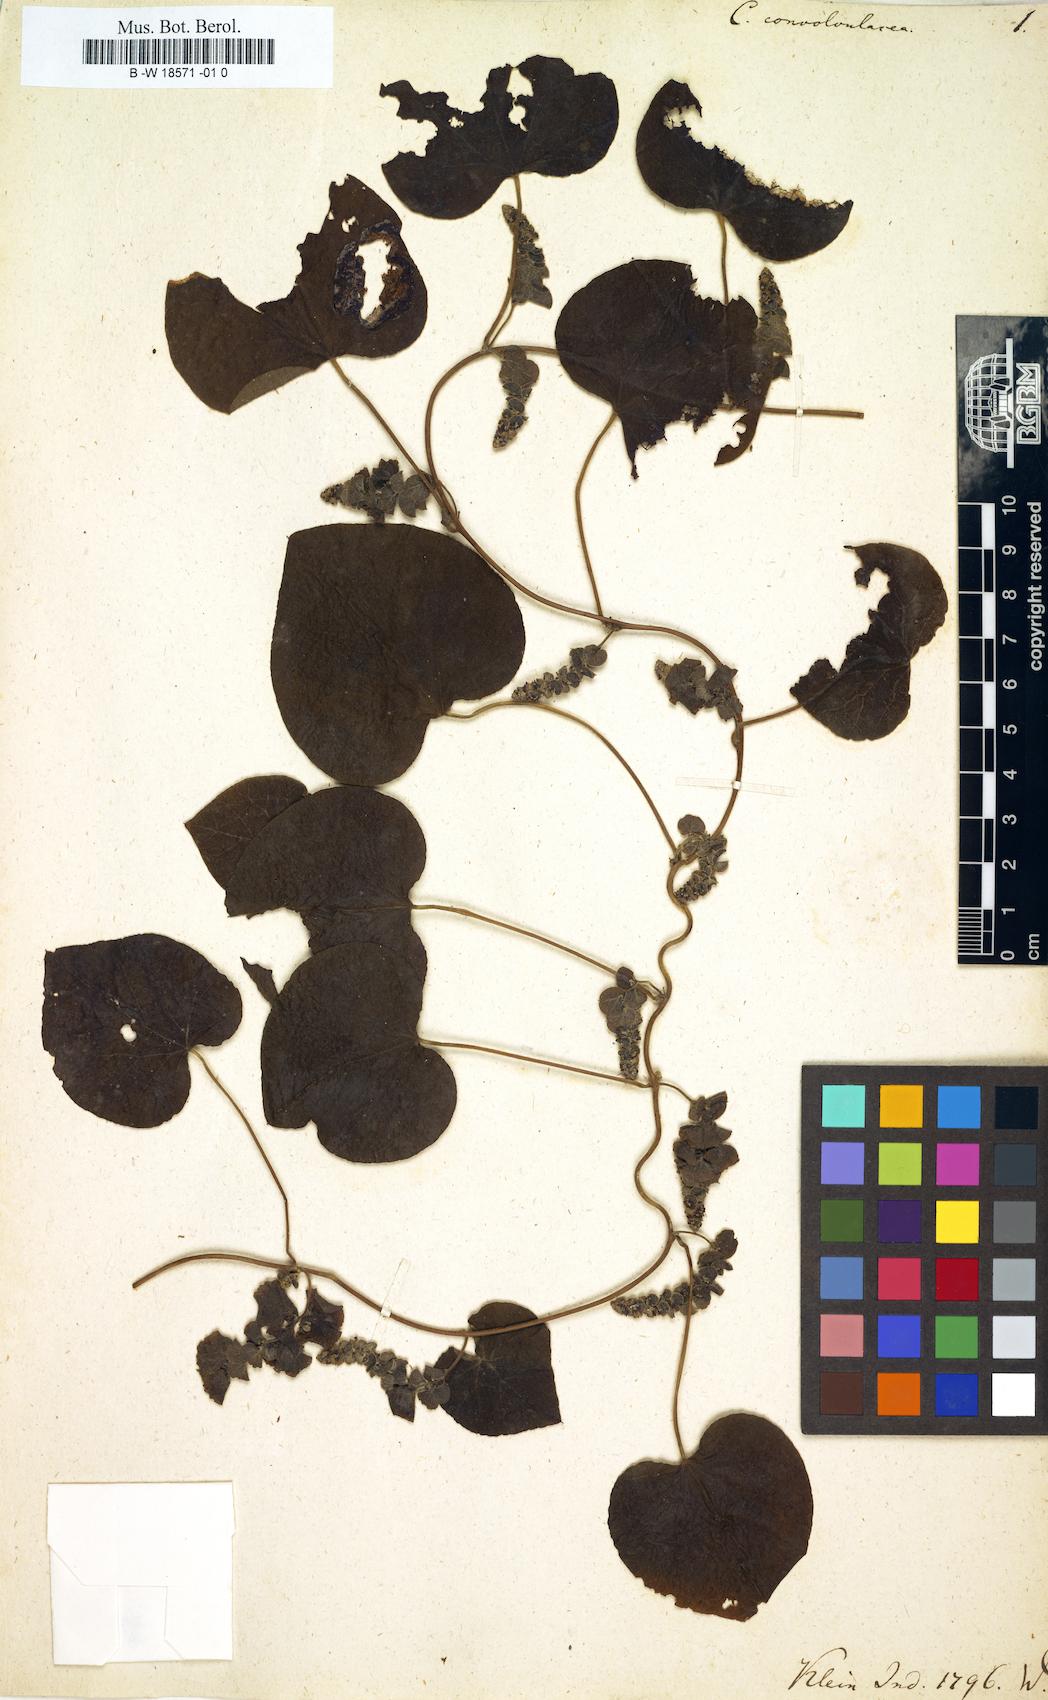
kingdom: Plantae
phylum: Tracheophyta
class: Magnoliopsida
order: Ranunculales
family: Menispermaceae
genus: Cissampelos
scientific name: Cissampelos pareira
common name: Velvetleaf
